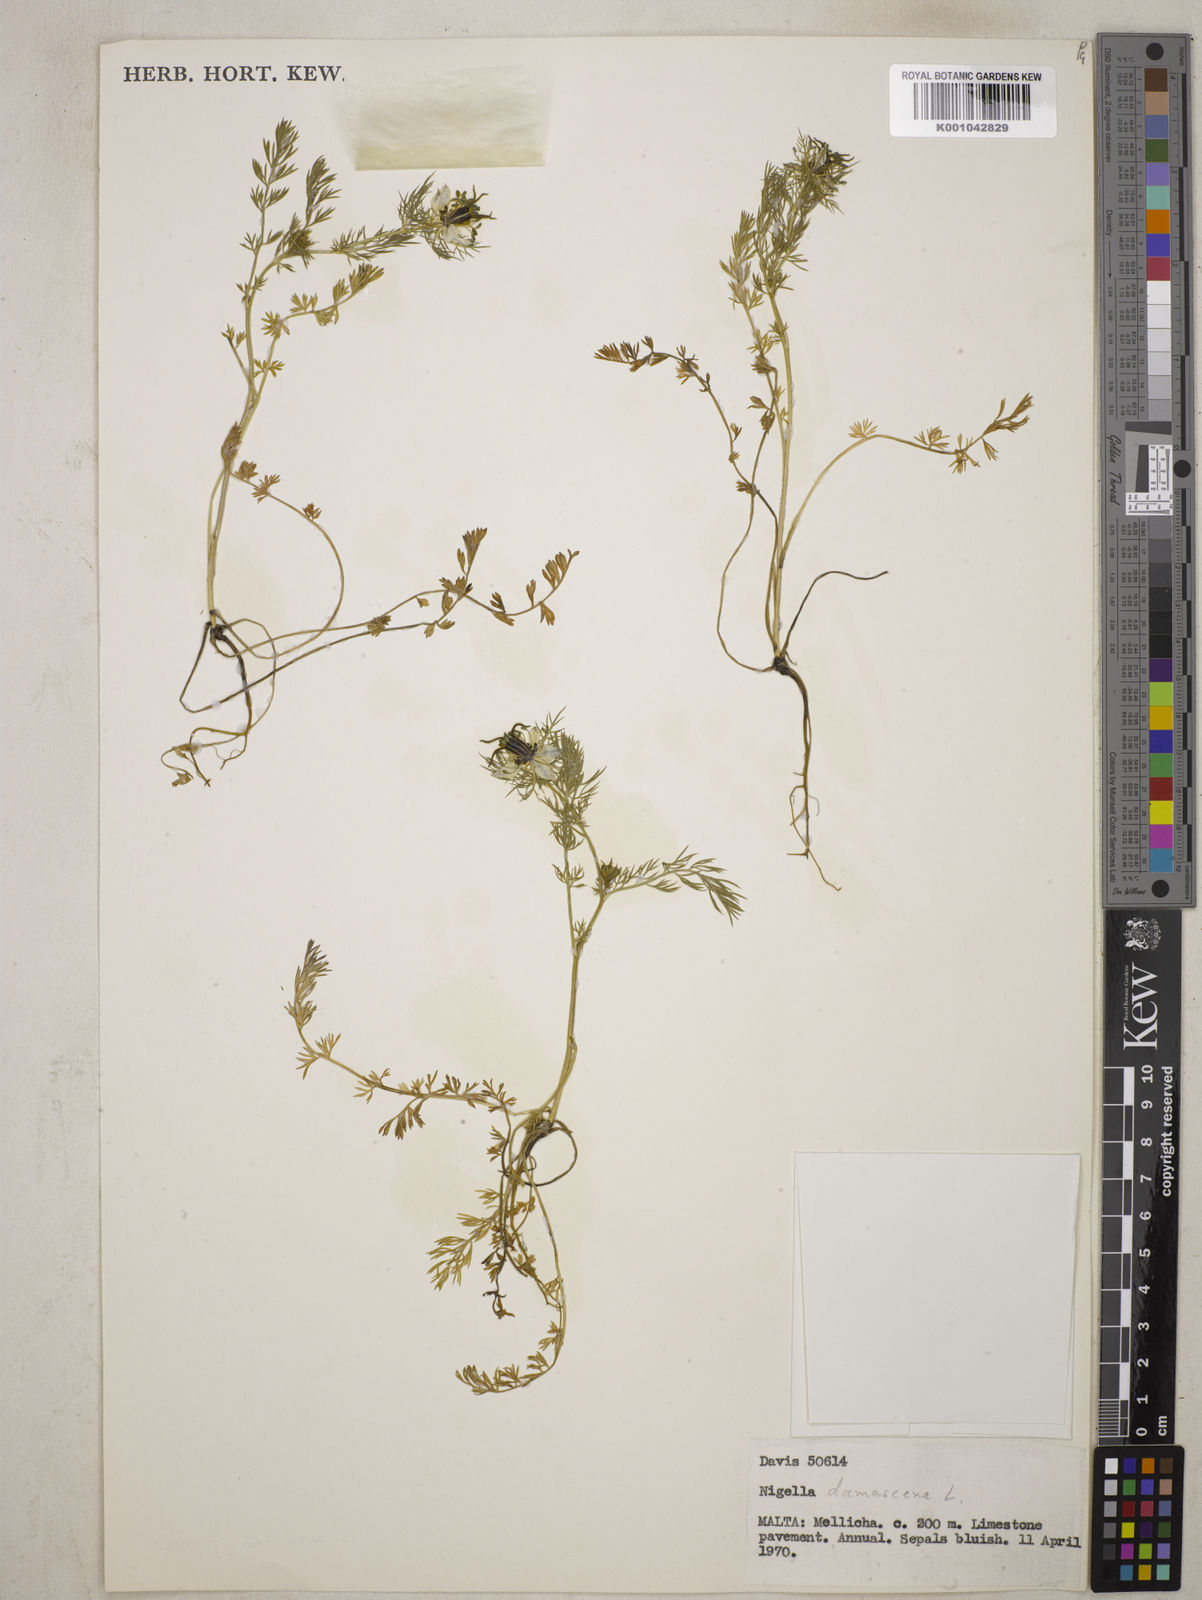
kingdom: Plantae
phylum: Tracheophyta
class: Magnoliopsida
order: Ranunculales
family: Ranunculaceae
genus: Nigella
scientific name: Nigella damascena
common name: Love-in-a-mist
